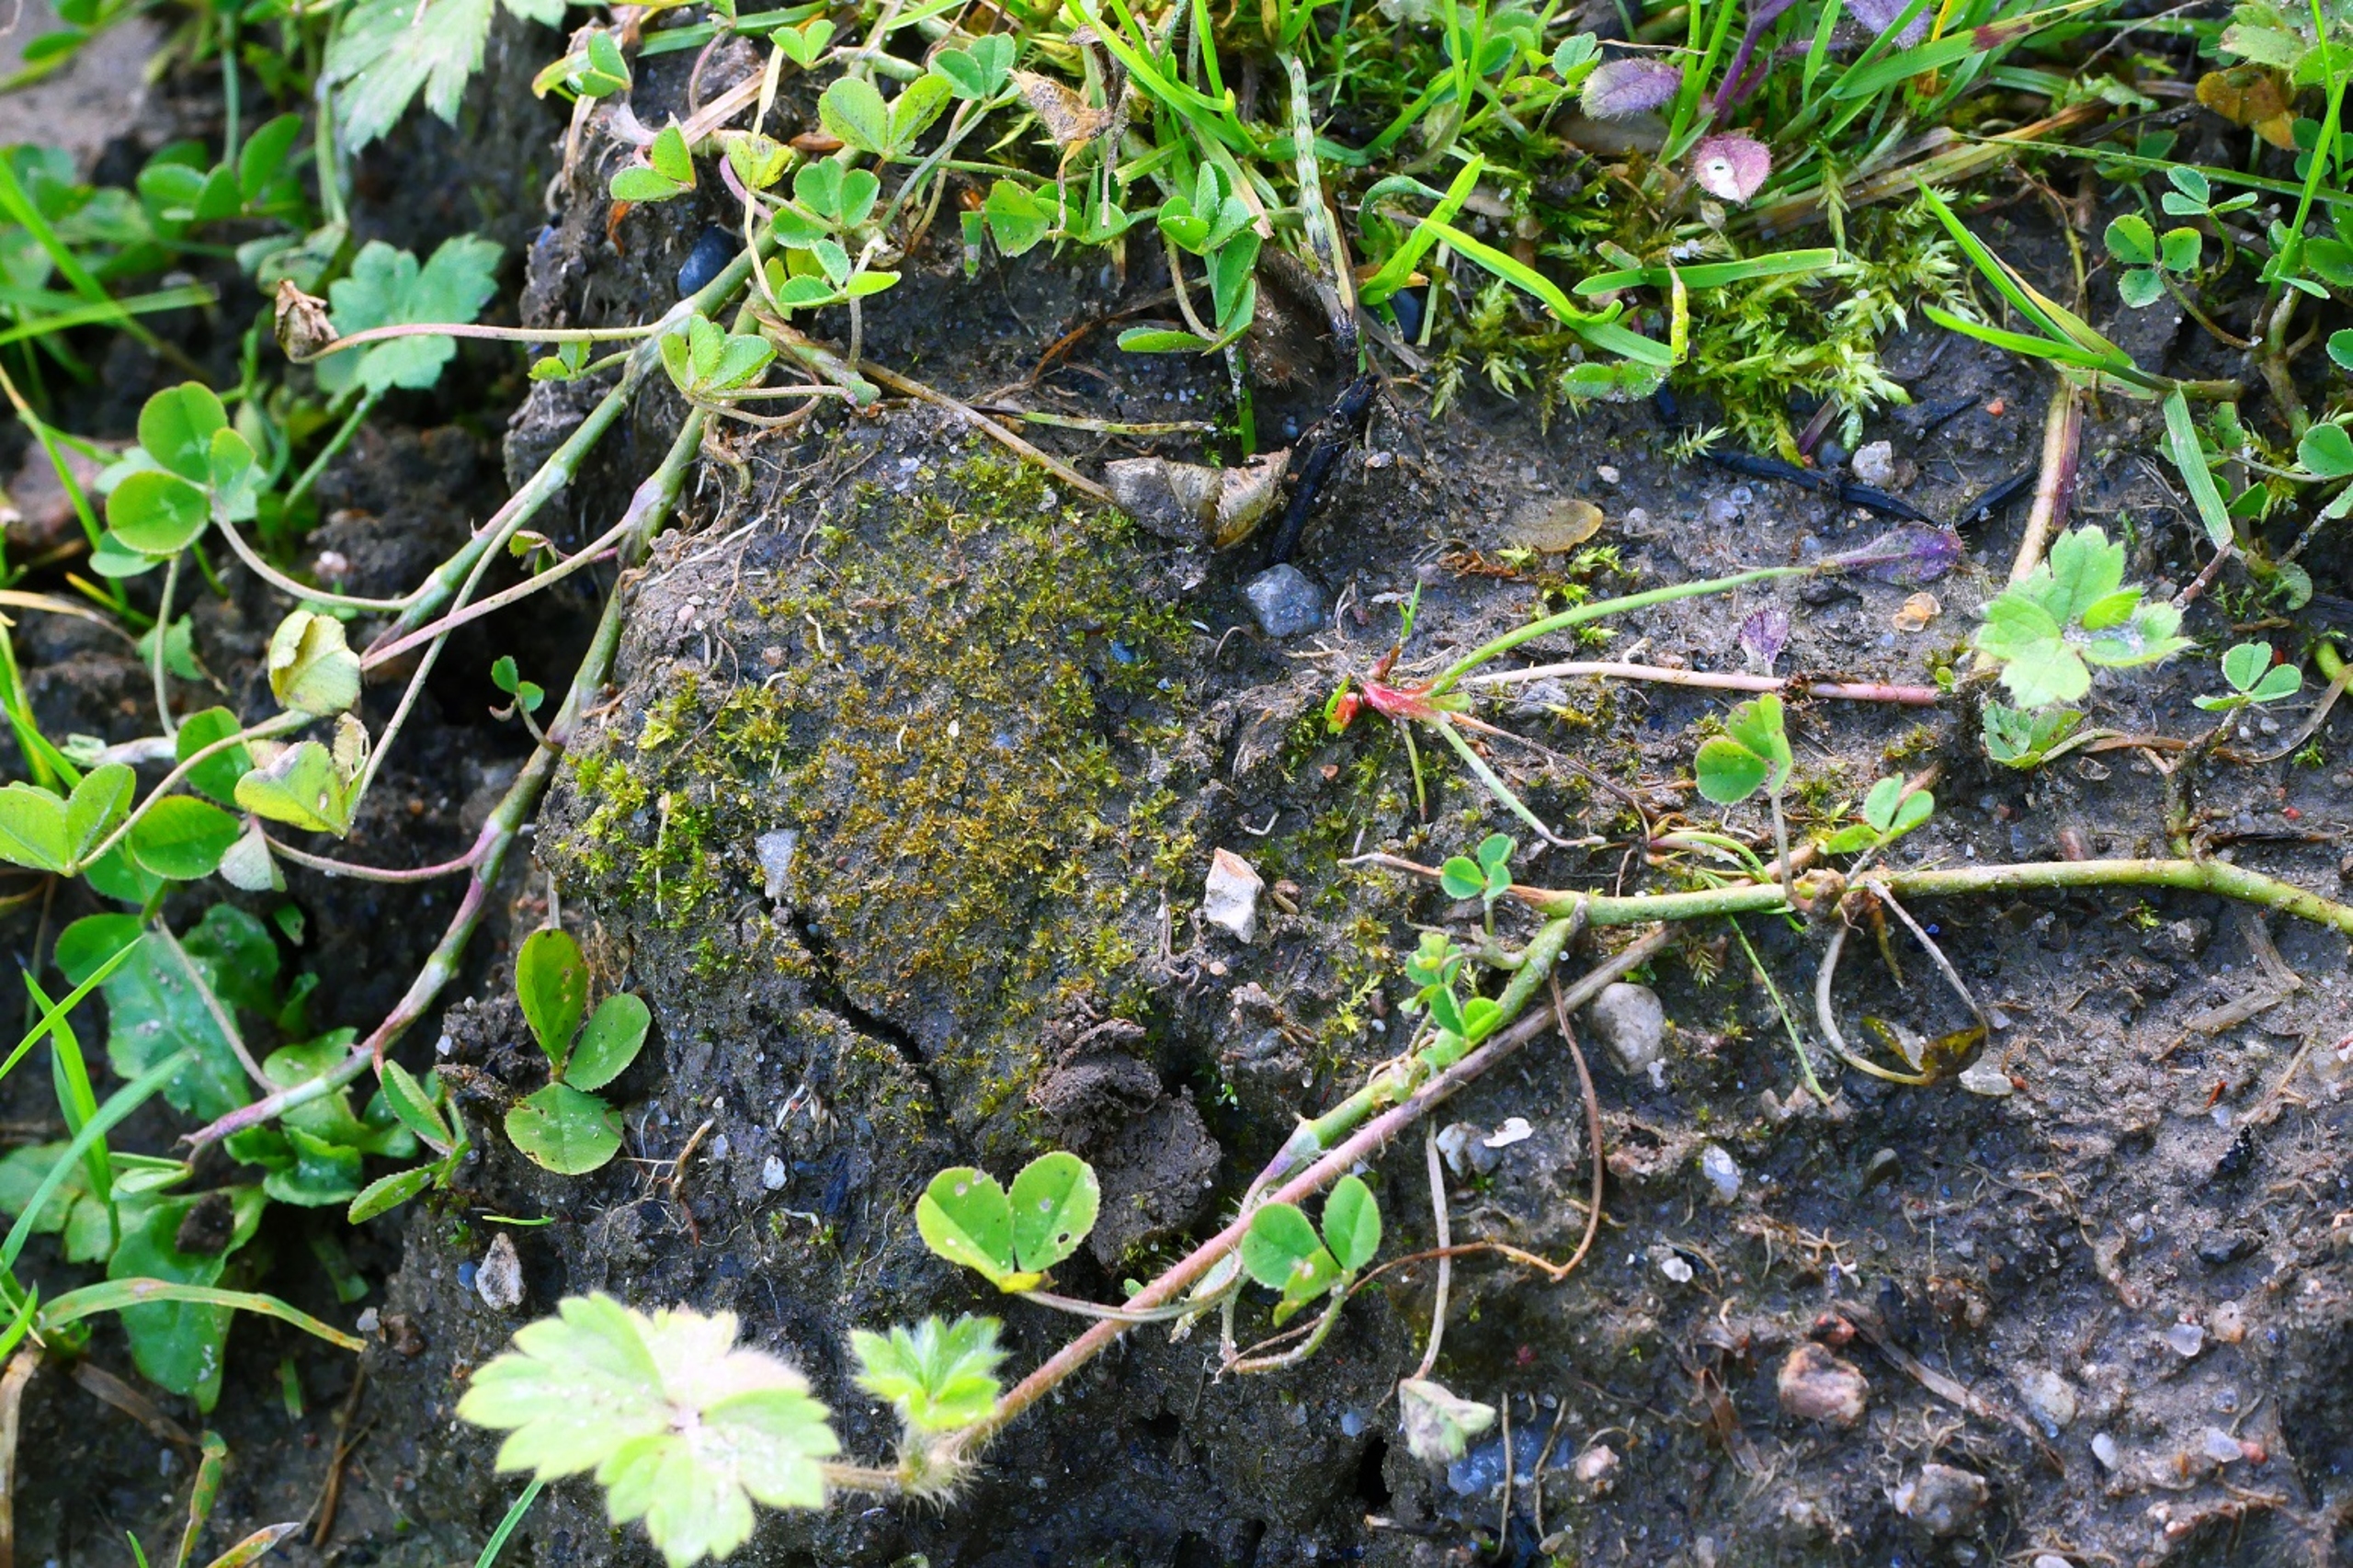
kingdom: Plantae
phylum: Bryophyta
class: Bryopsida
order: Funariales
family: Funariaceae
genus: Physcomitrium
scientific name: Physcomitrium patens
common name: Bulet muddermos
